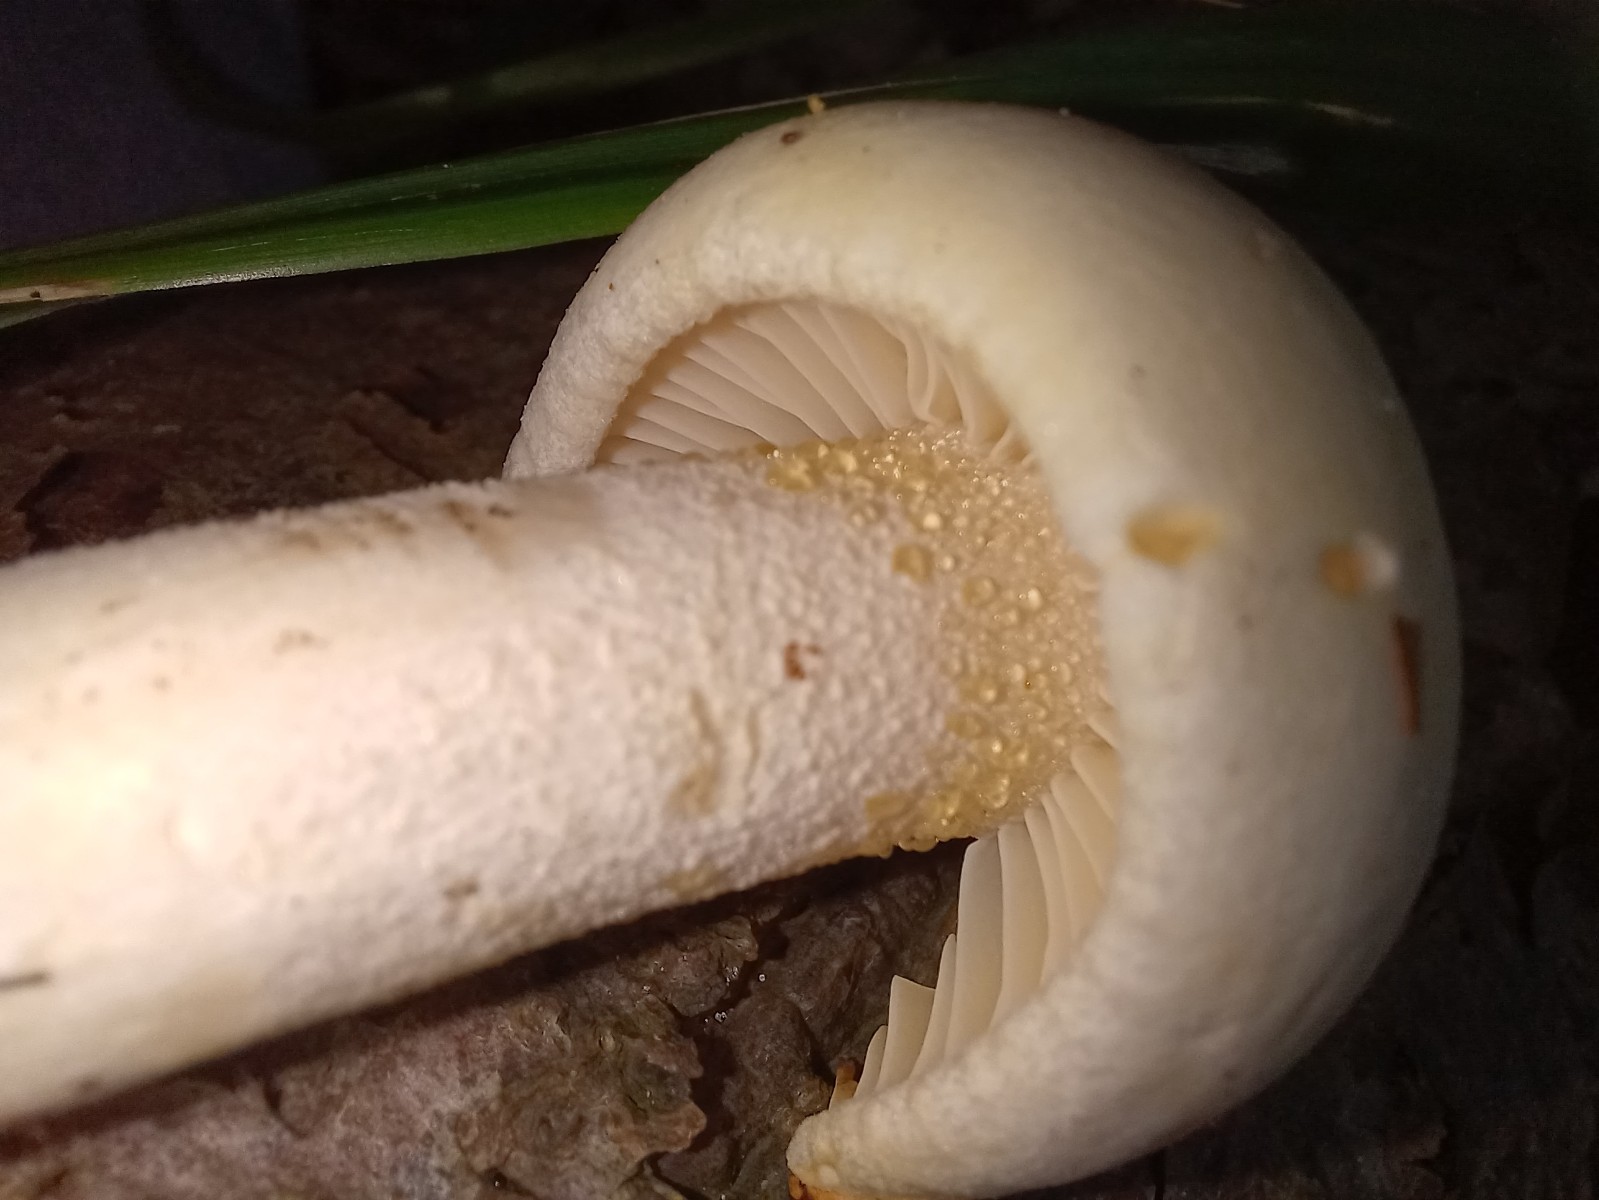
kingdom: Fungi
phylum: Basidiomycota
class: Agaricomycetes
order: Agaricales
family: Agaricaceae
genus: Chamaemyces
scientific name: Chamaemyces fracidus
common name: dråbehat
